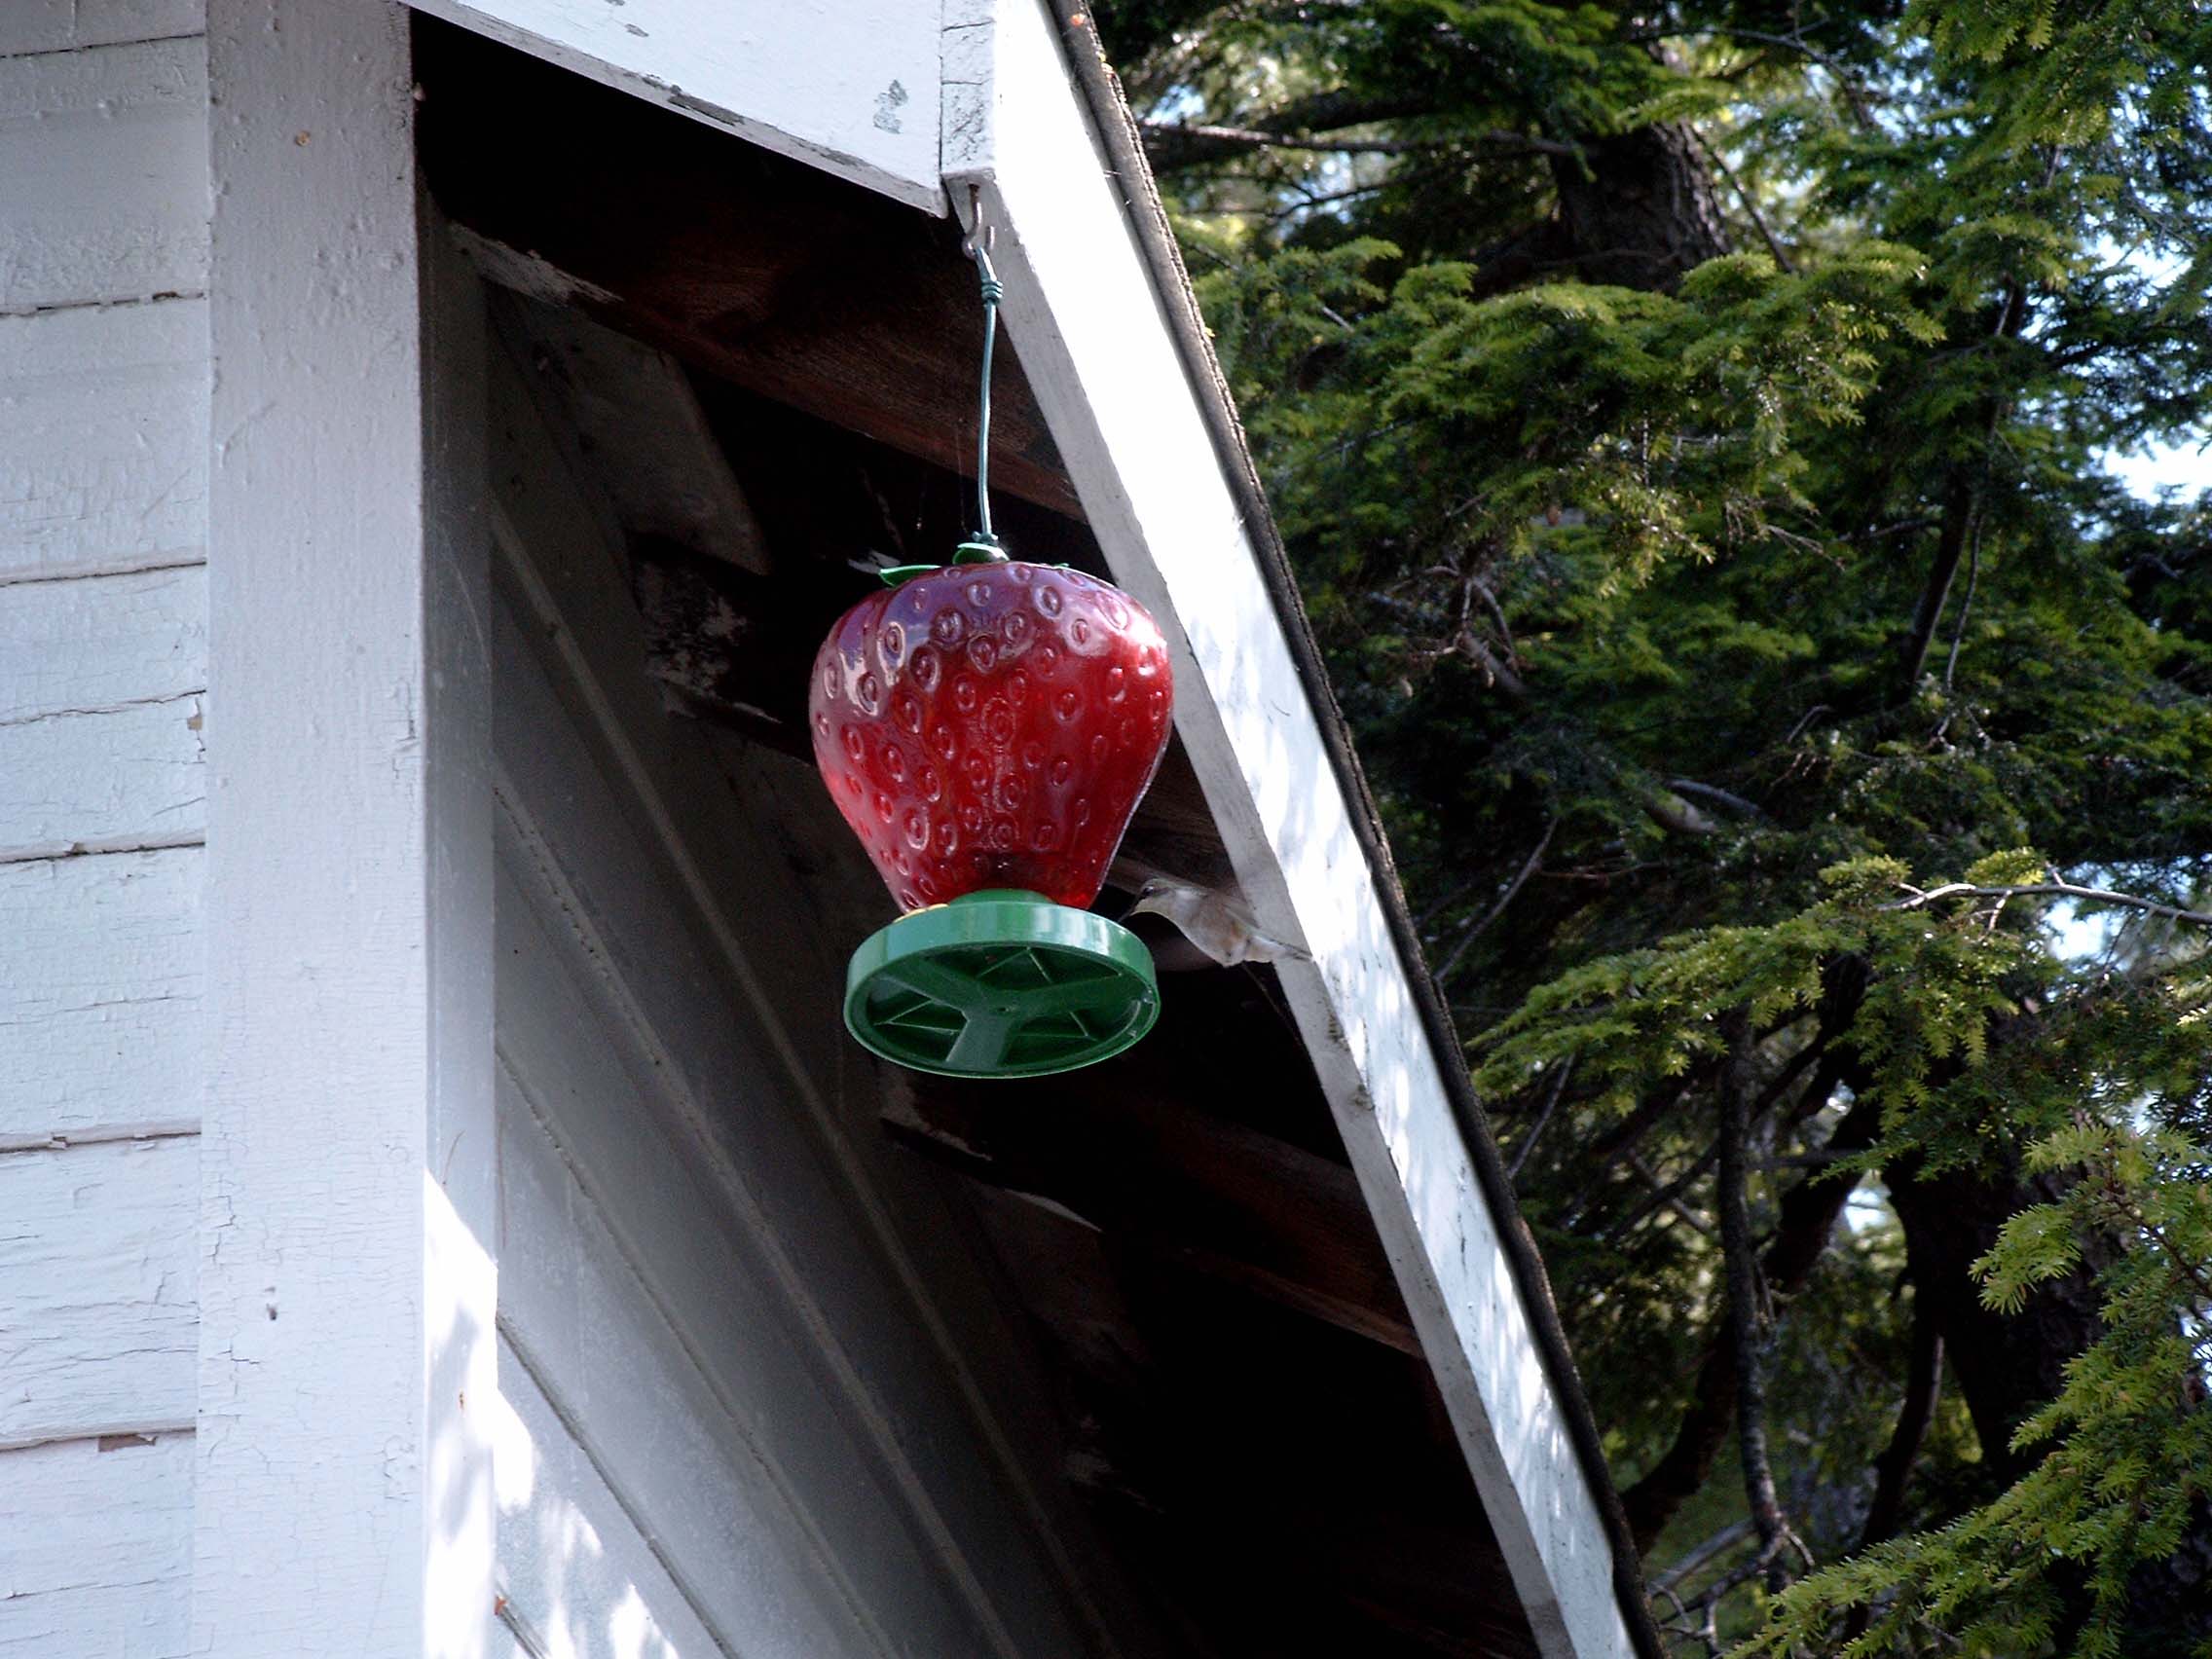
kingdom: Animalia
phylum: Chordata
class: Aves
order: Apodiformes
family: Trochilidae
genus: Archilochus
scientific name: Archilochus colubris
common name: Ruby-throated hummingbird
